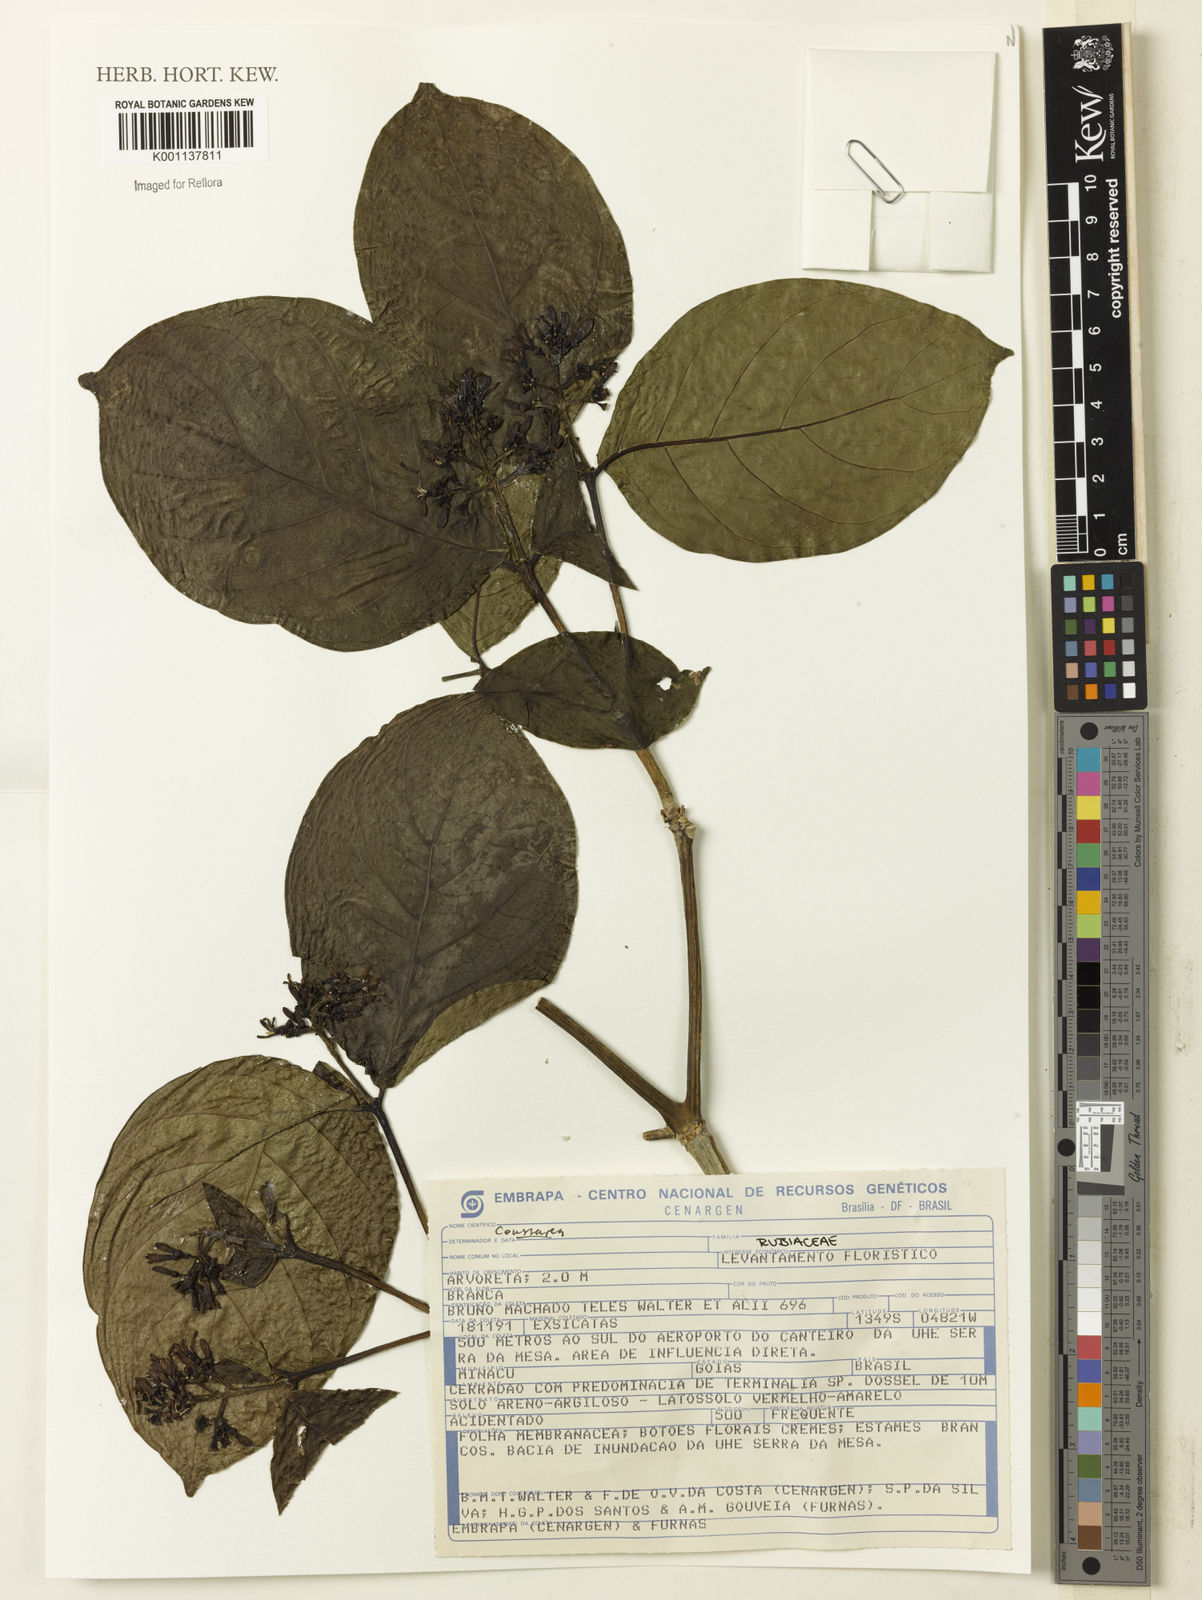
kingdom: Plantae
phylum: Tracheophyta
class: Magnoliopsida
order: Gentianales
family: Rubiaceae
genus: Coussarea
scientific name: Coussarea
